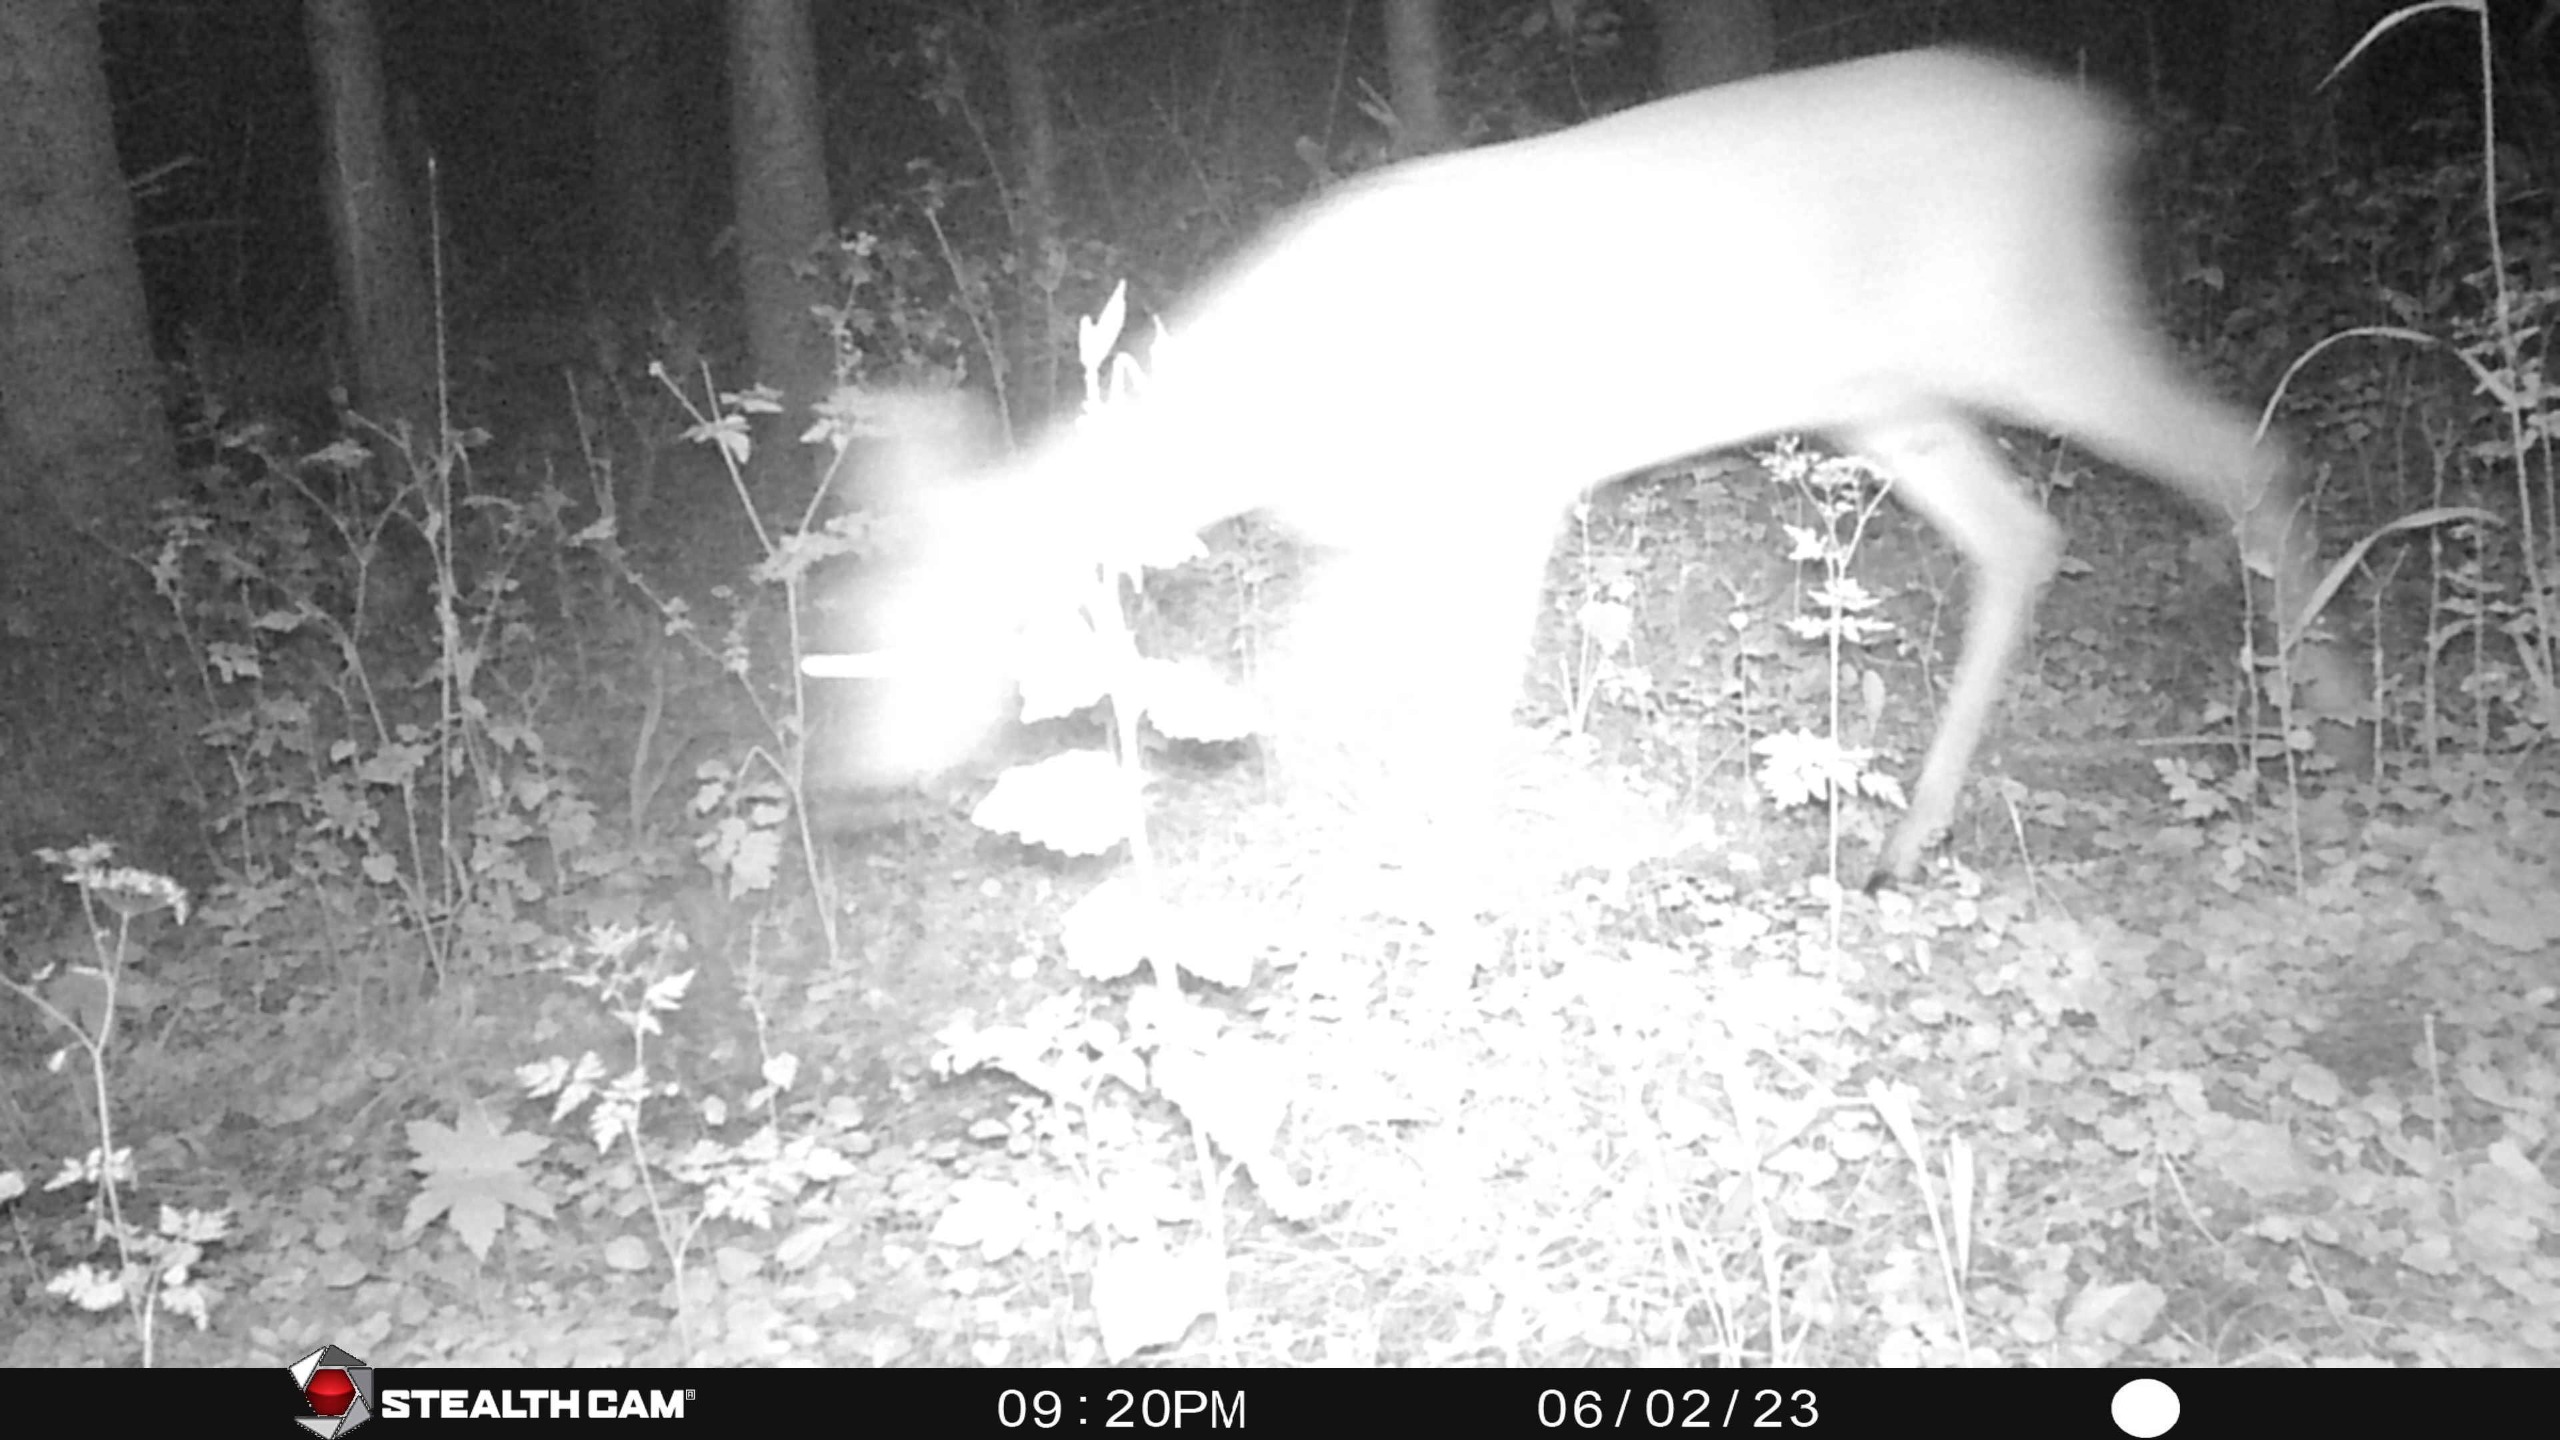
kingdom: Animalia
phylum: Chordata
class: Mammalia
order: Artiodactyla
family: Cervidae
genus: Capreolus
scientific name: Capreolus capreolus
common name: Rådyr
